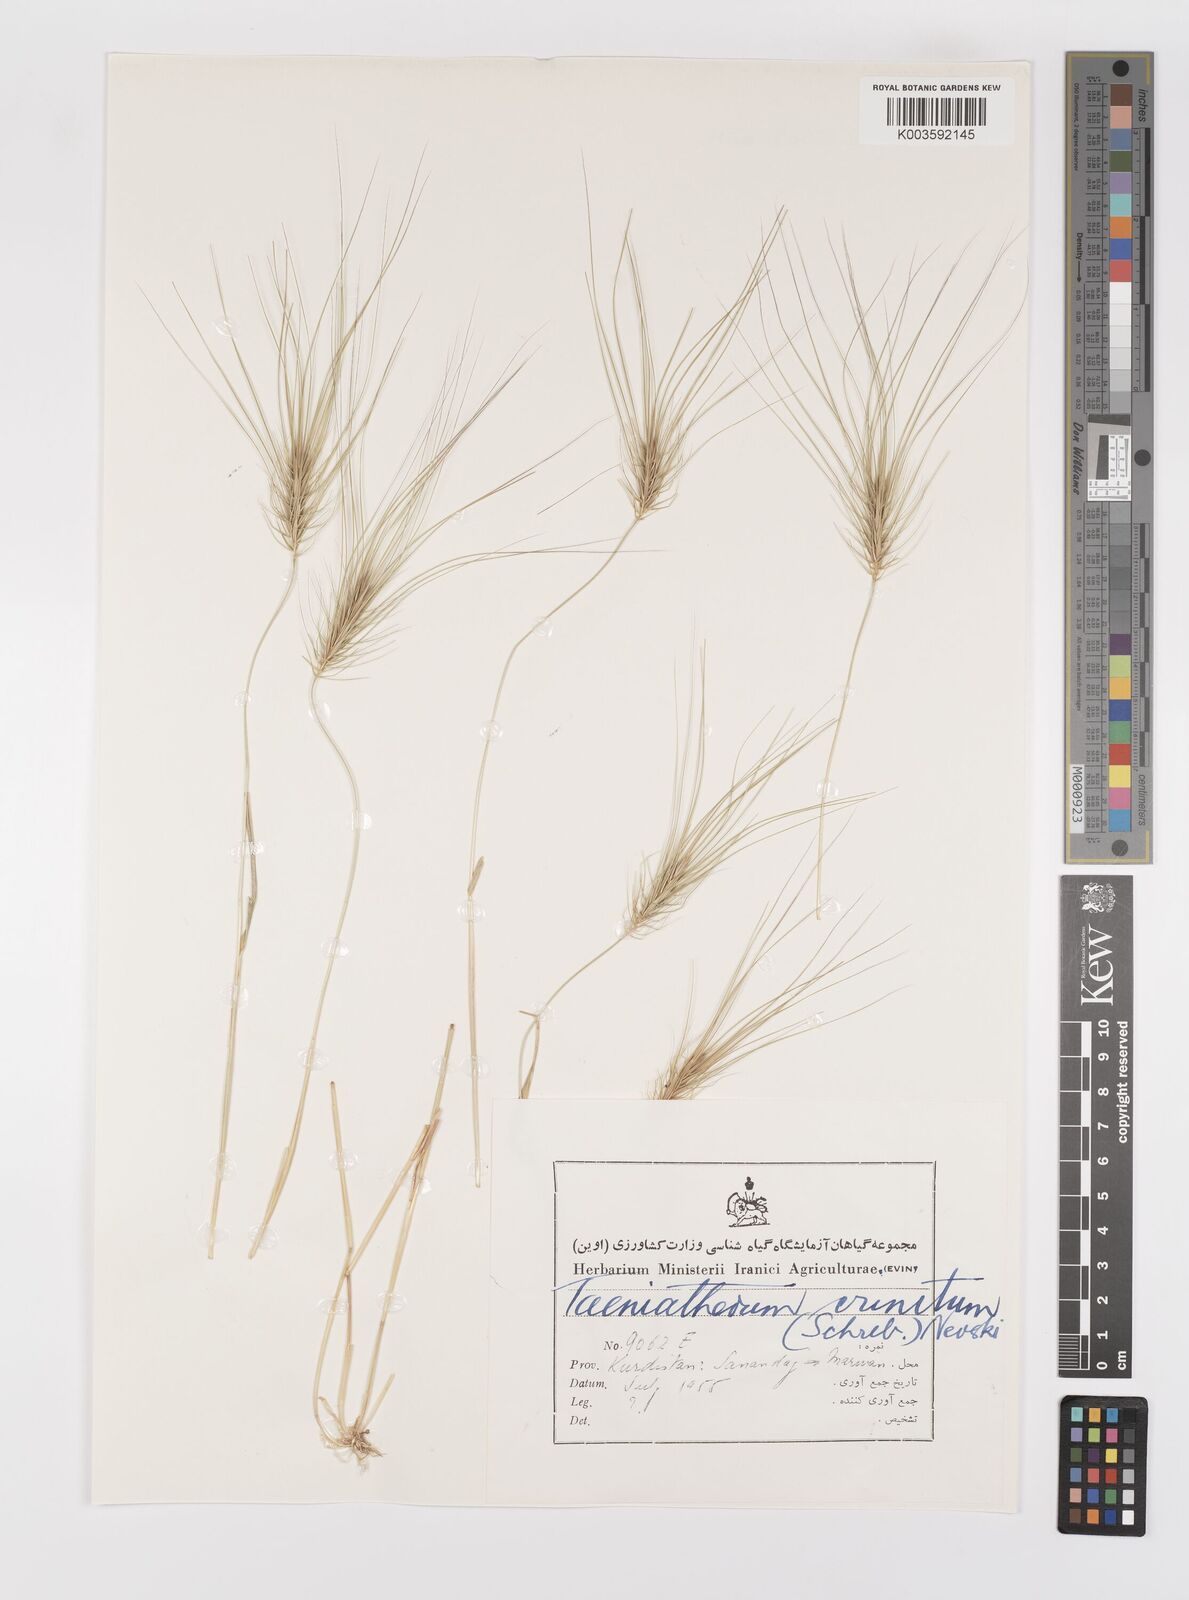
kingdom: Plantae
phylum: Tracheophyta
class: Liliopsida
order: Poales
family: Poaceae
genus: Taeniatherum
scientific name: Taeniatherum caput-medusae
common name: Medusahead
